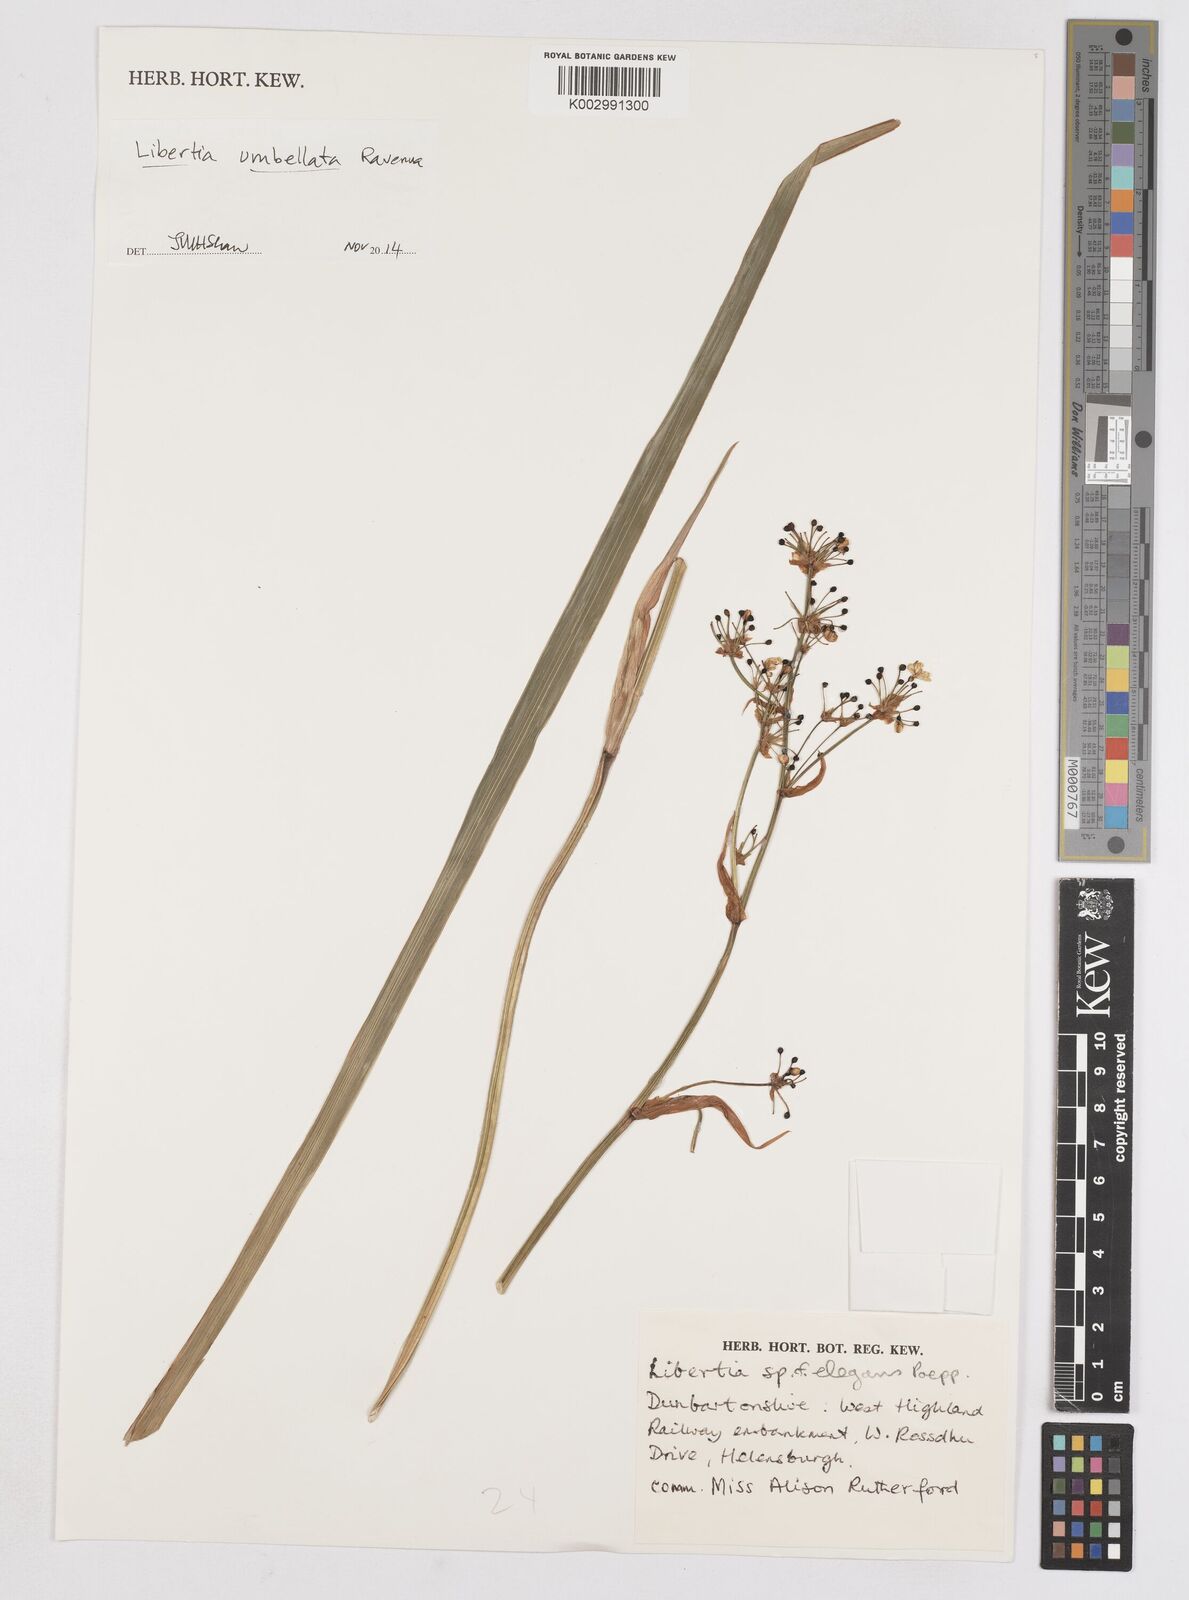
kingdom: Plantae
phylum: Tracheophyta
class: Liliopsida
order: Asparagales
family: Iridaceae
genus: Libertia
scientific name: Libertia umbellata
